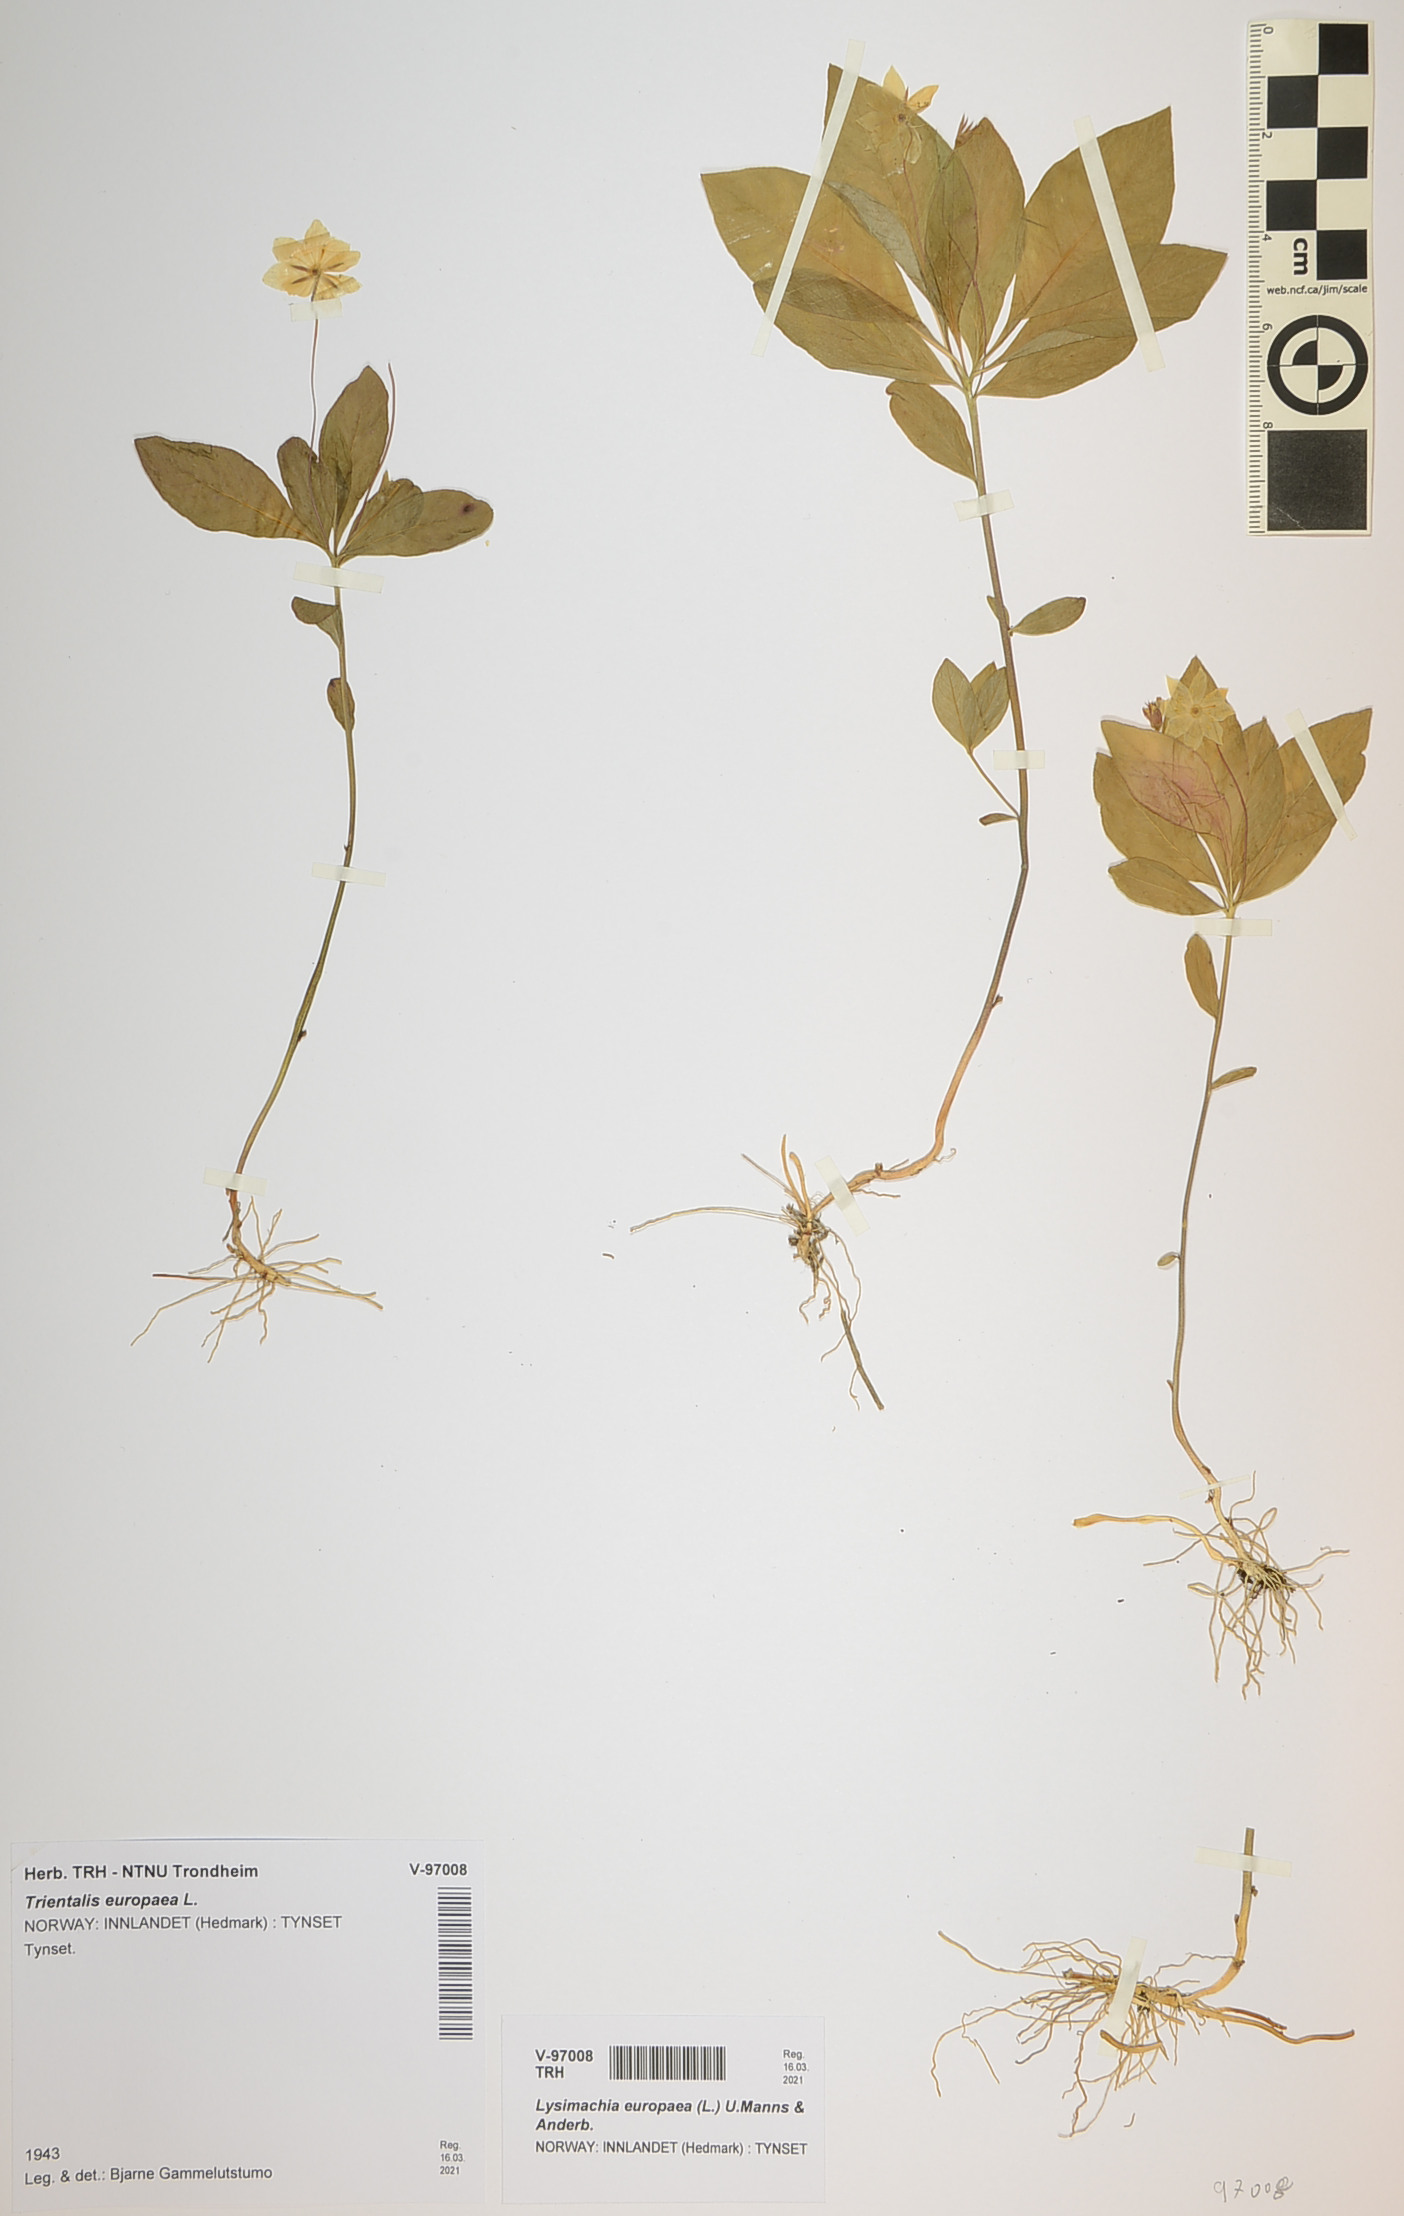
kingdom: Plantae
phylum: Tracheophyta
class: Magnoliopsida
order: Ericales
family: Primulaceae
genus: Lysimachia
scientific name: Lysimachia europaea
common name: Arctic starflower
